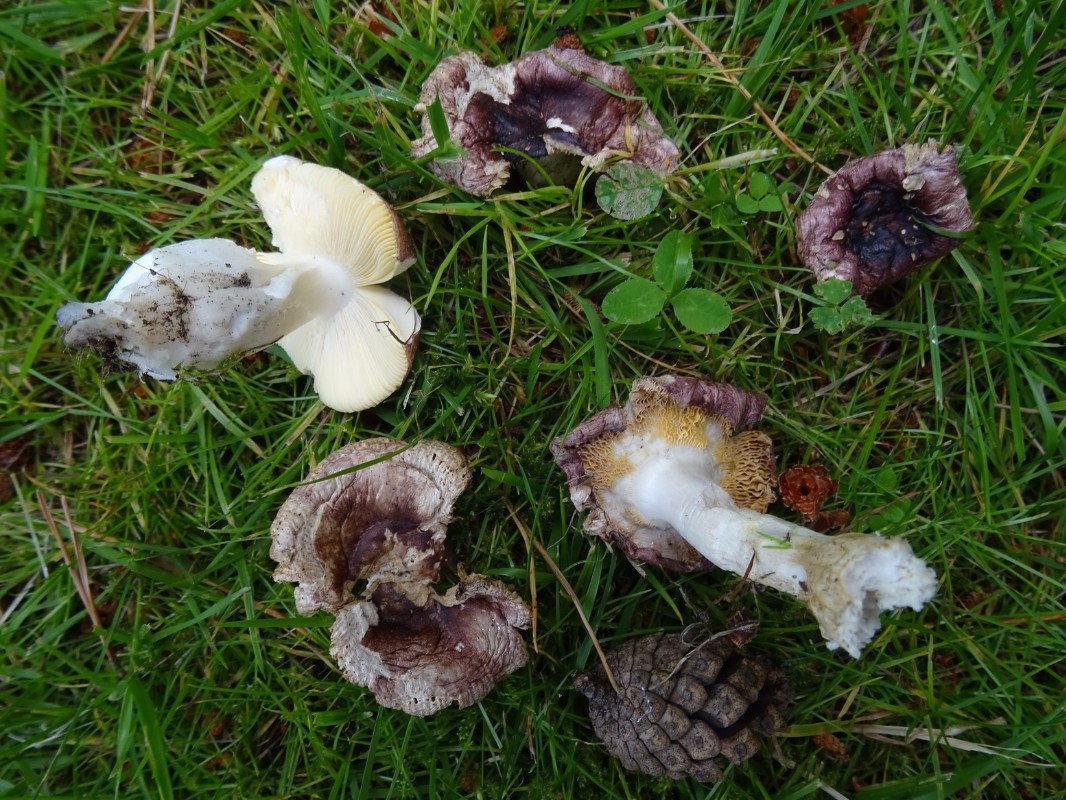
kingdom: Fungi
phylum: Basidiomycota
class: Agaricomycetes
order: Russulales
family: Russulaceae
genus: Russula
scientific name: Russula cessans
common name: fyrre-skørhat
